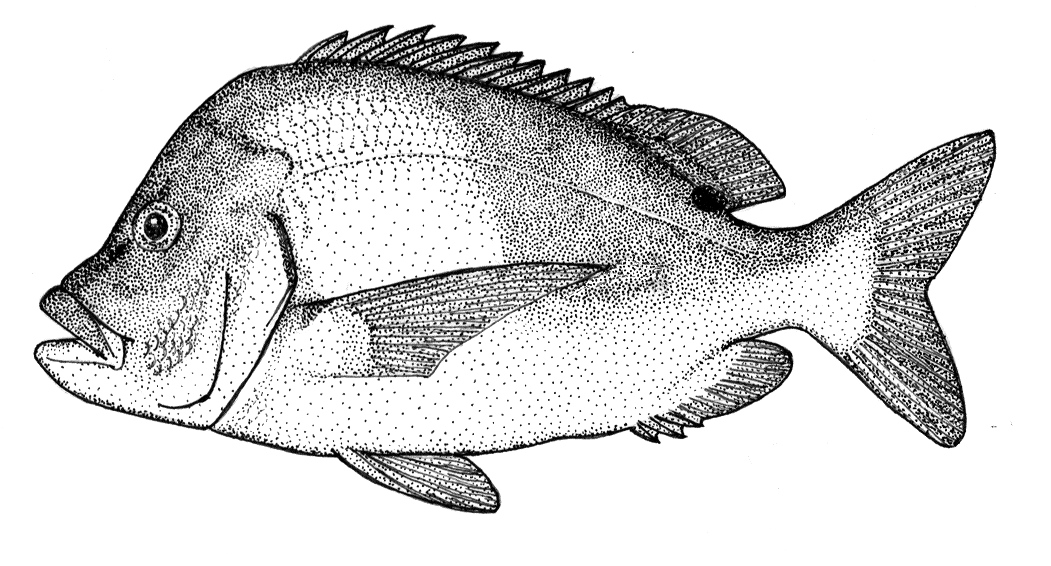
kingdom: Animalia
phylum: Chordata
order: Perciformes
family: Sparidae
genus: Chrysoblephus
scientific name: Chrysoblephus cristiceps
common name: Dageraad
